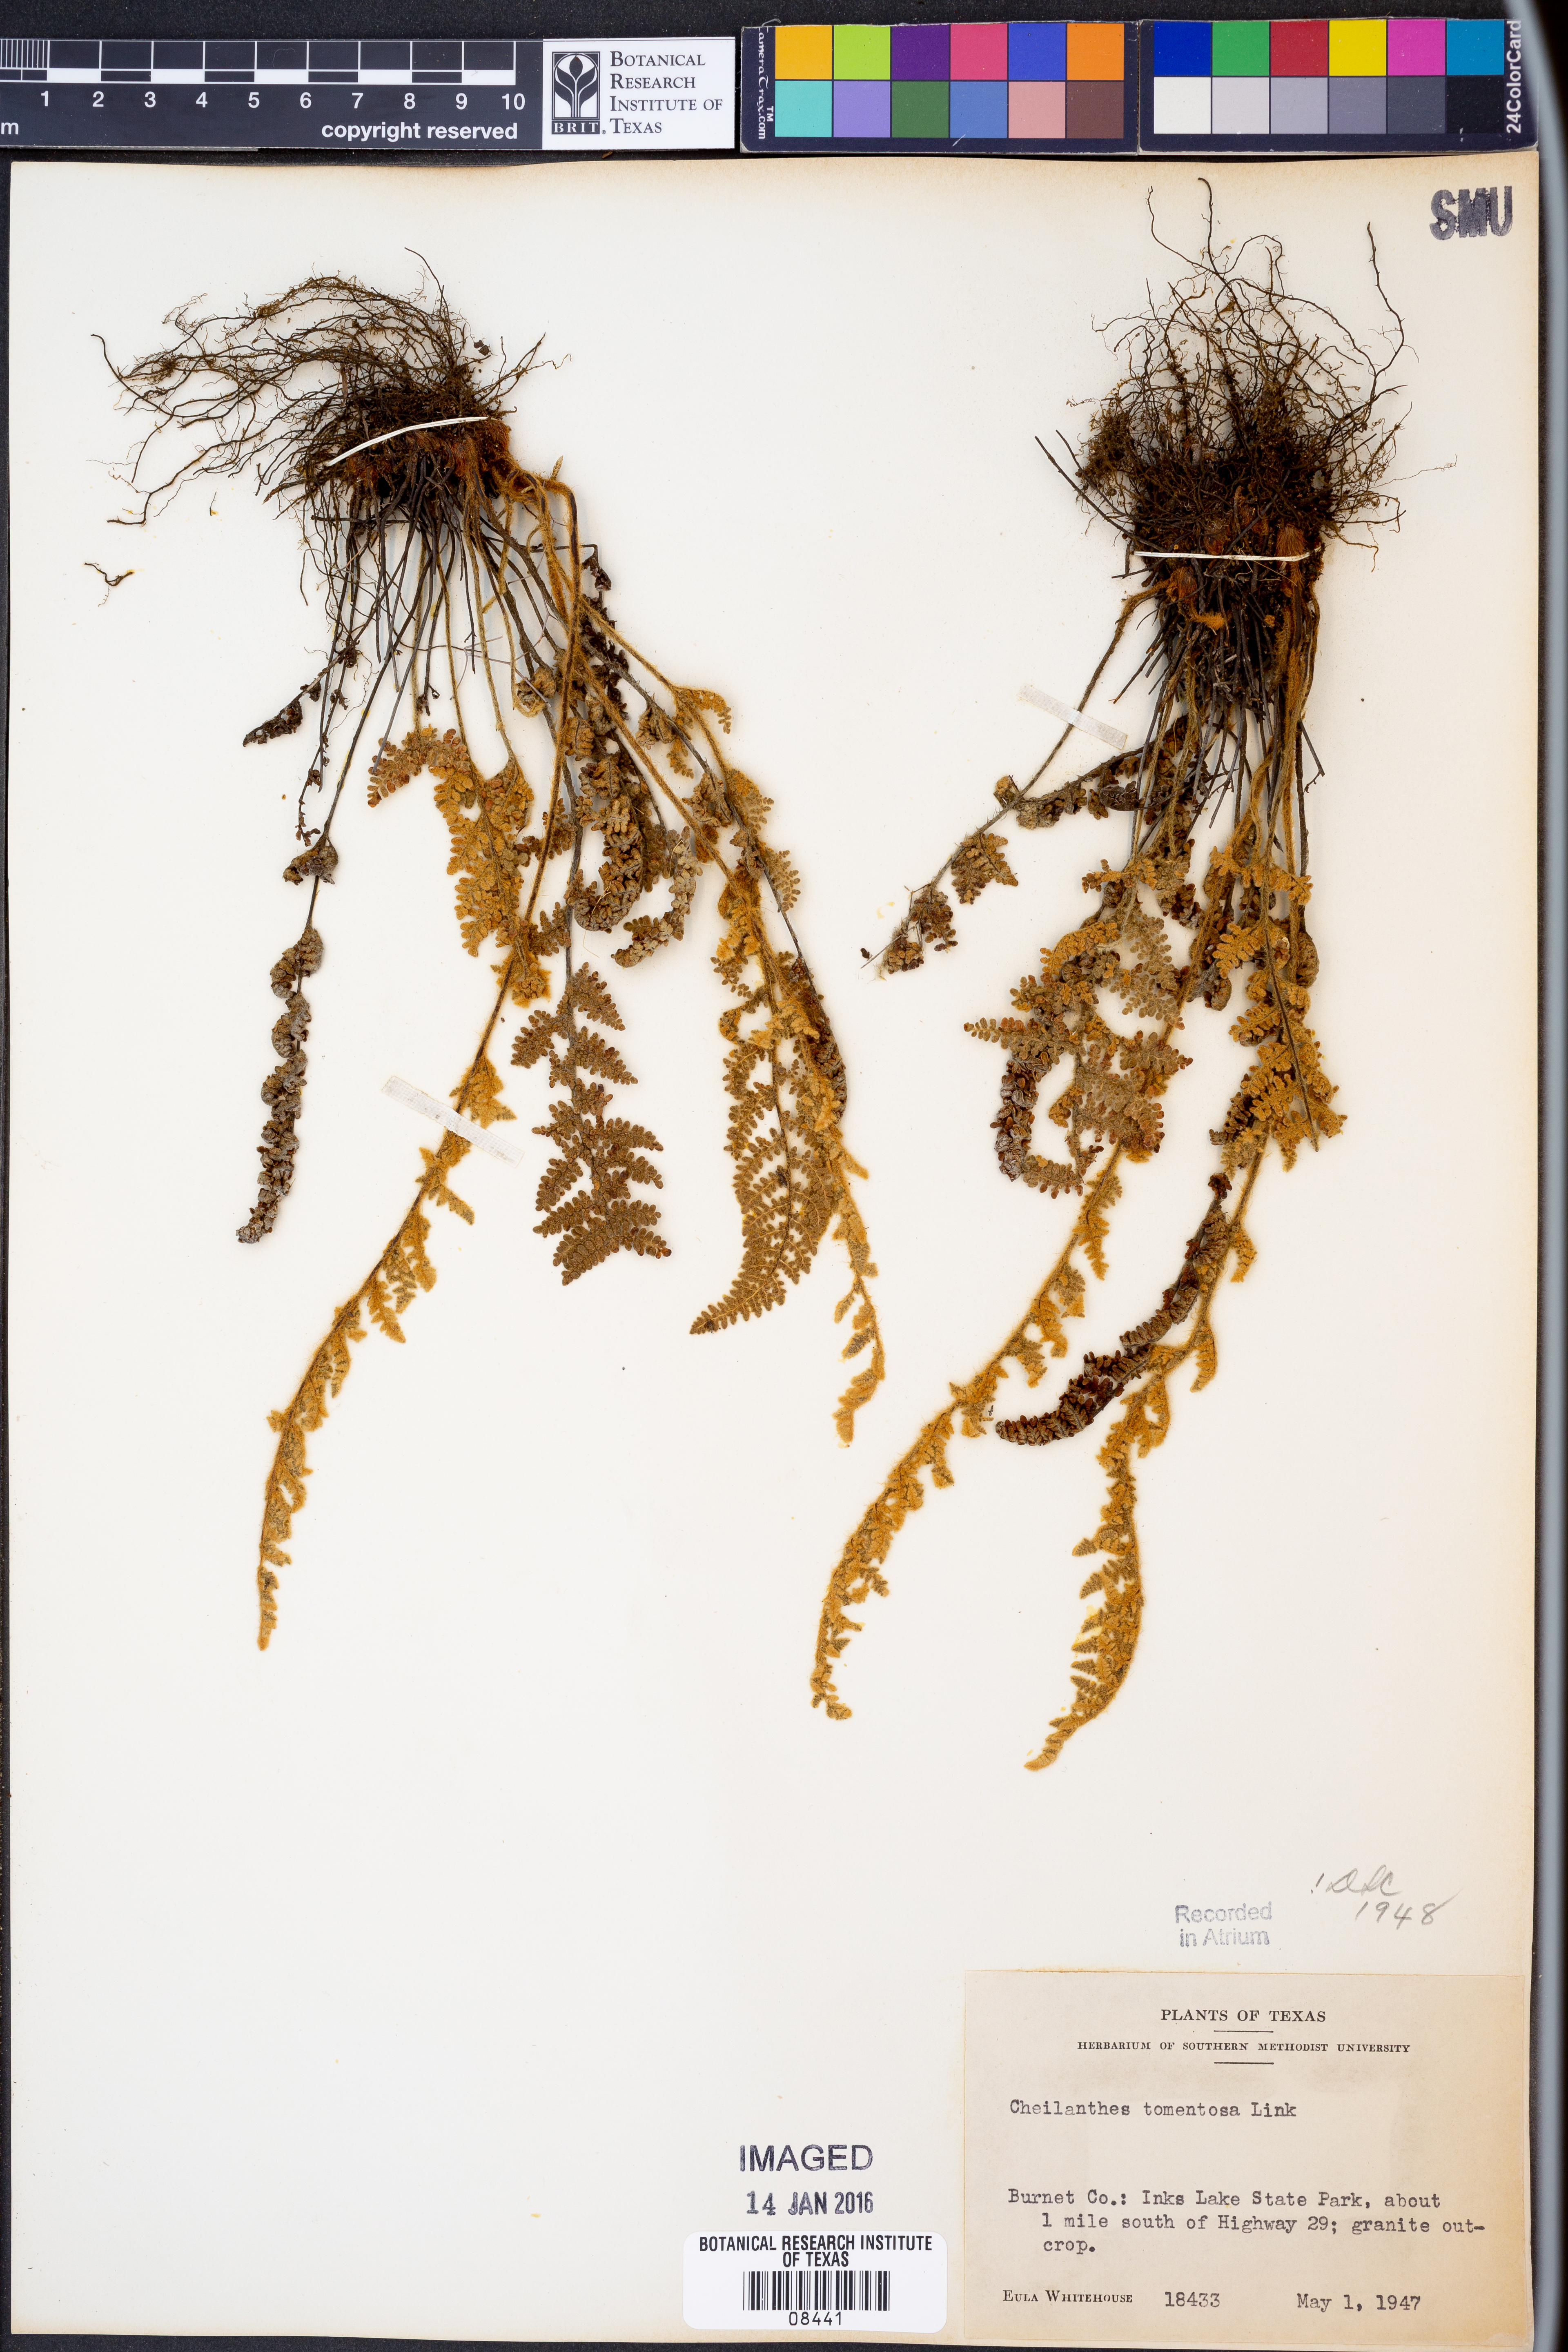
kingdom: Plantae
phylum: Tracheophyta
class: Polypodiopsida
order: Polypodiales
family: Pteridaceae
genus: Myriopteris
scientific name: Myriopteris tomentosa
